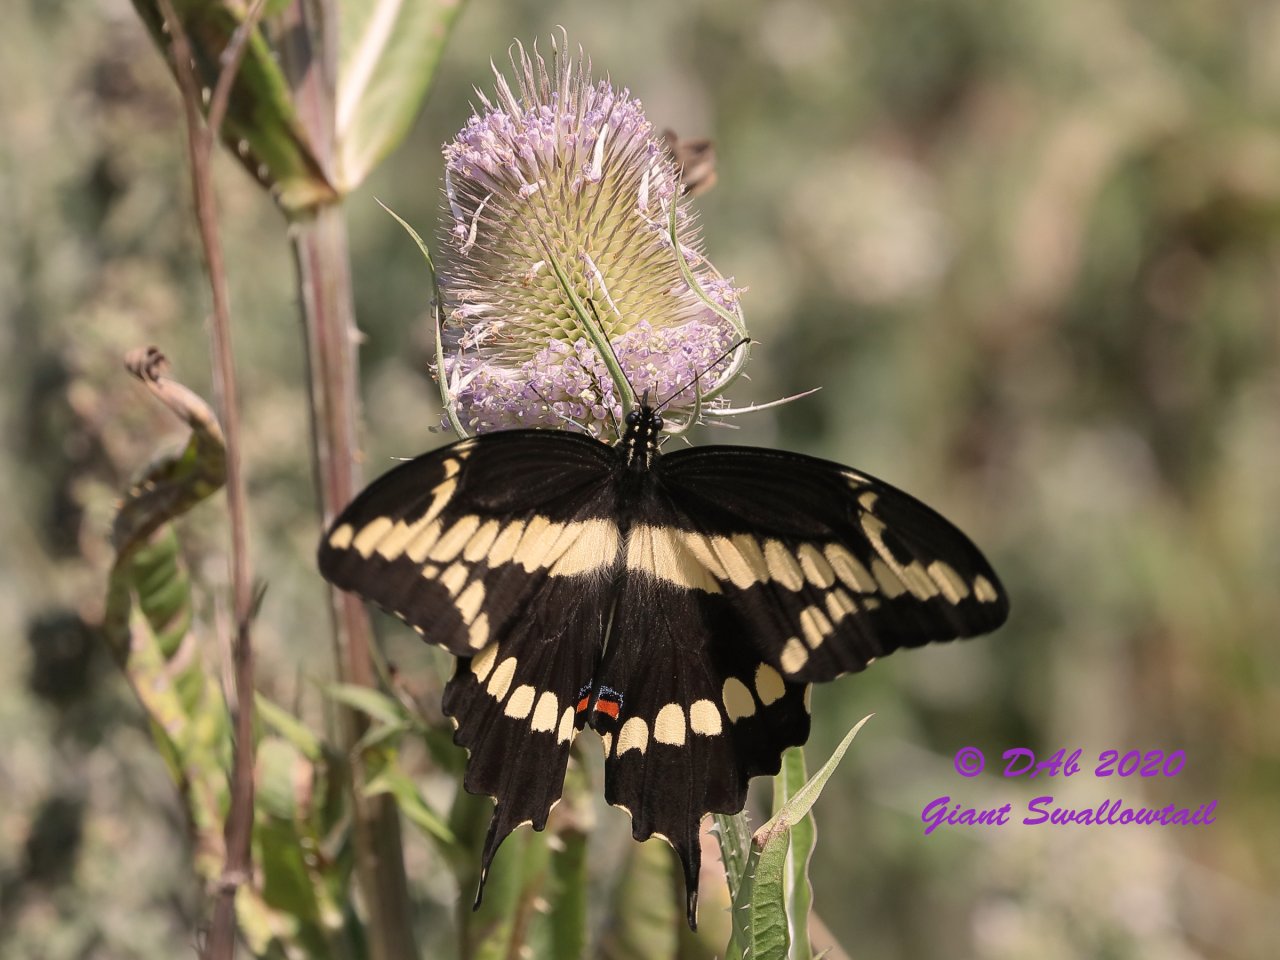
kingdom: Animalia
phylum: Arthropoda
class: Insecta
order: Lepidoptera
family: Papilionidae
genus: Papilio
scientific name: Papilio cresphontes
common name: Eastern Giant Swallowtail
